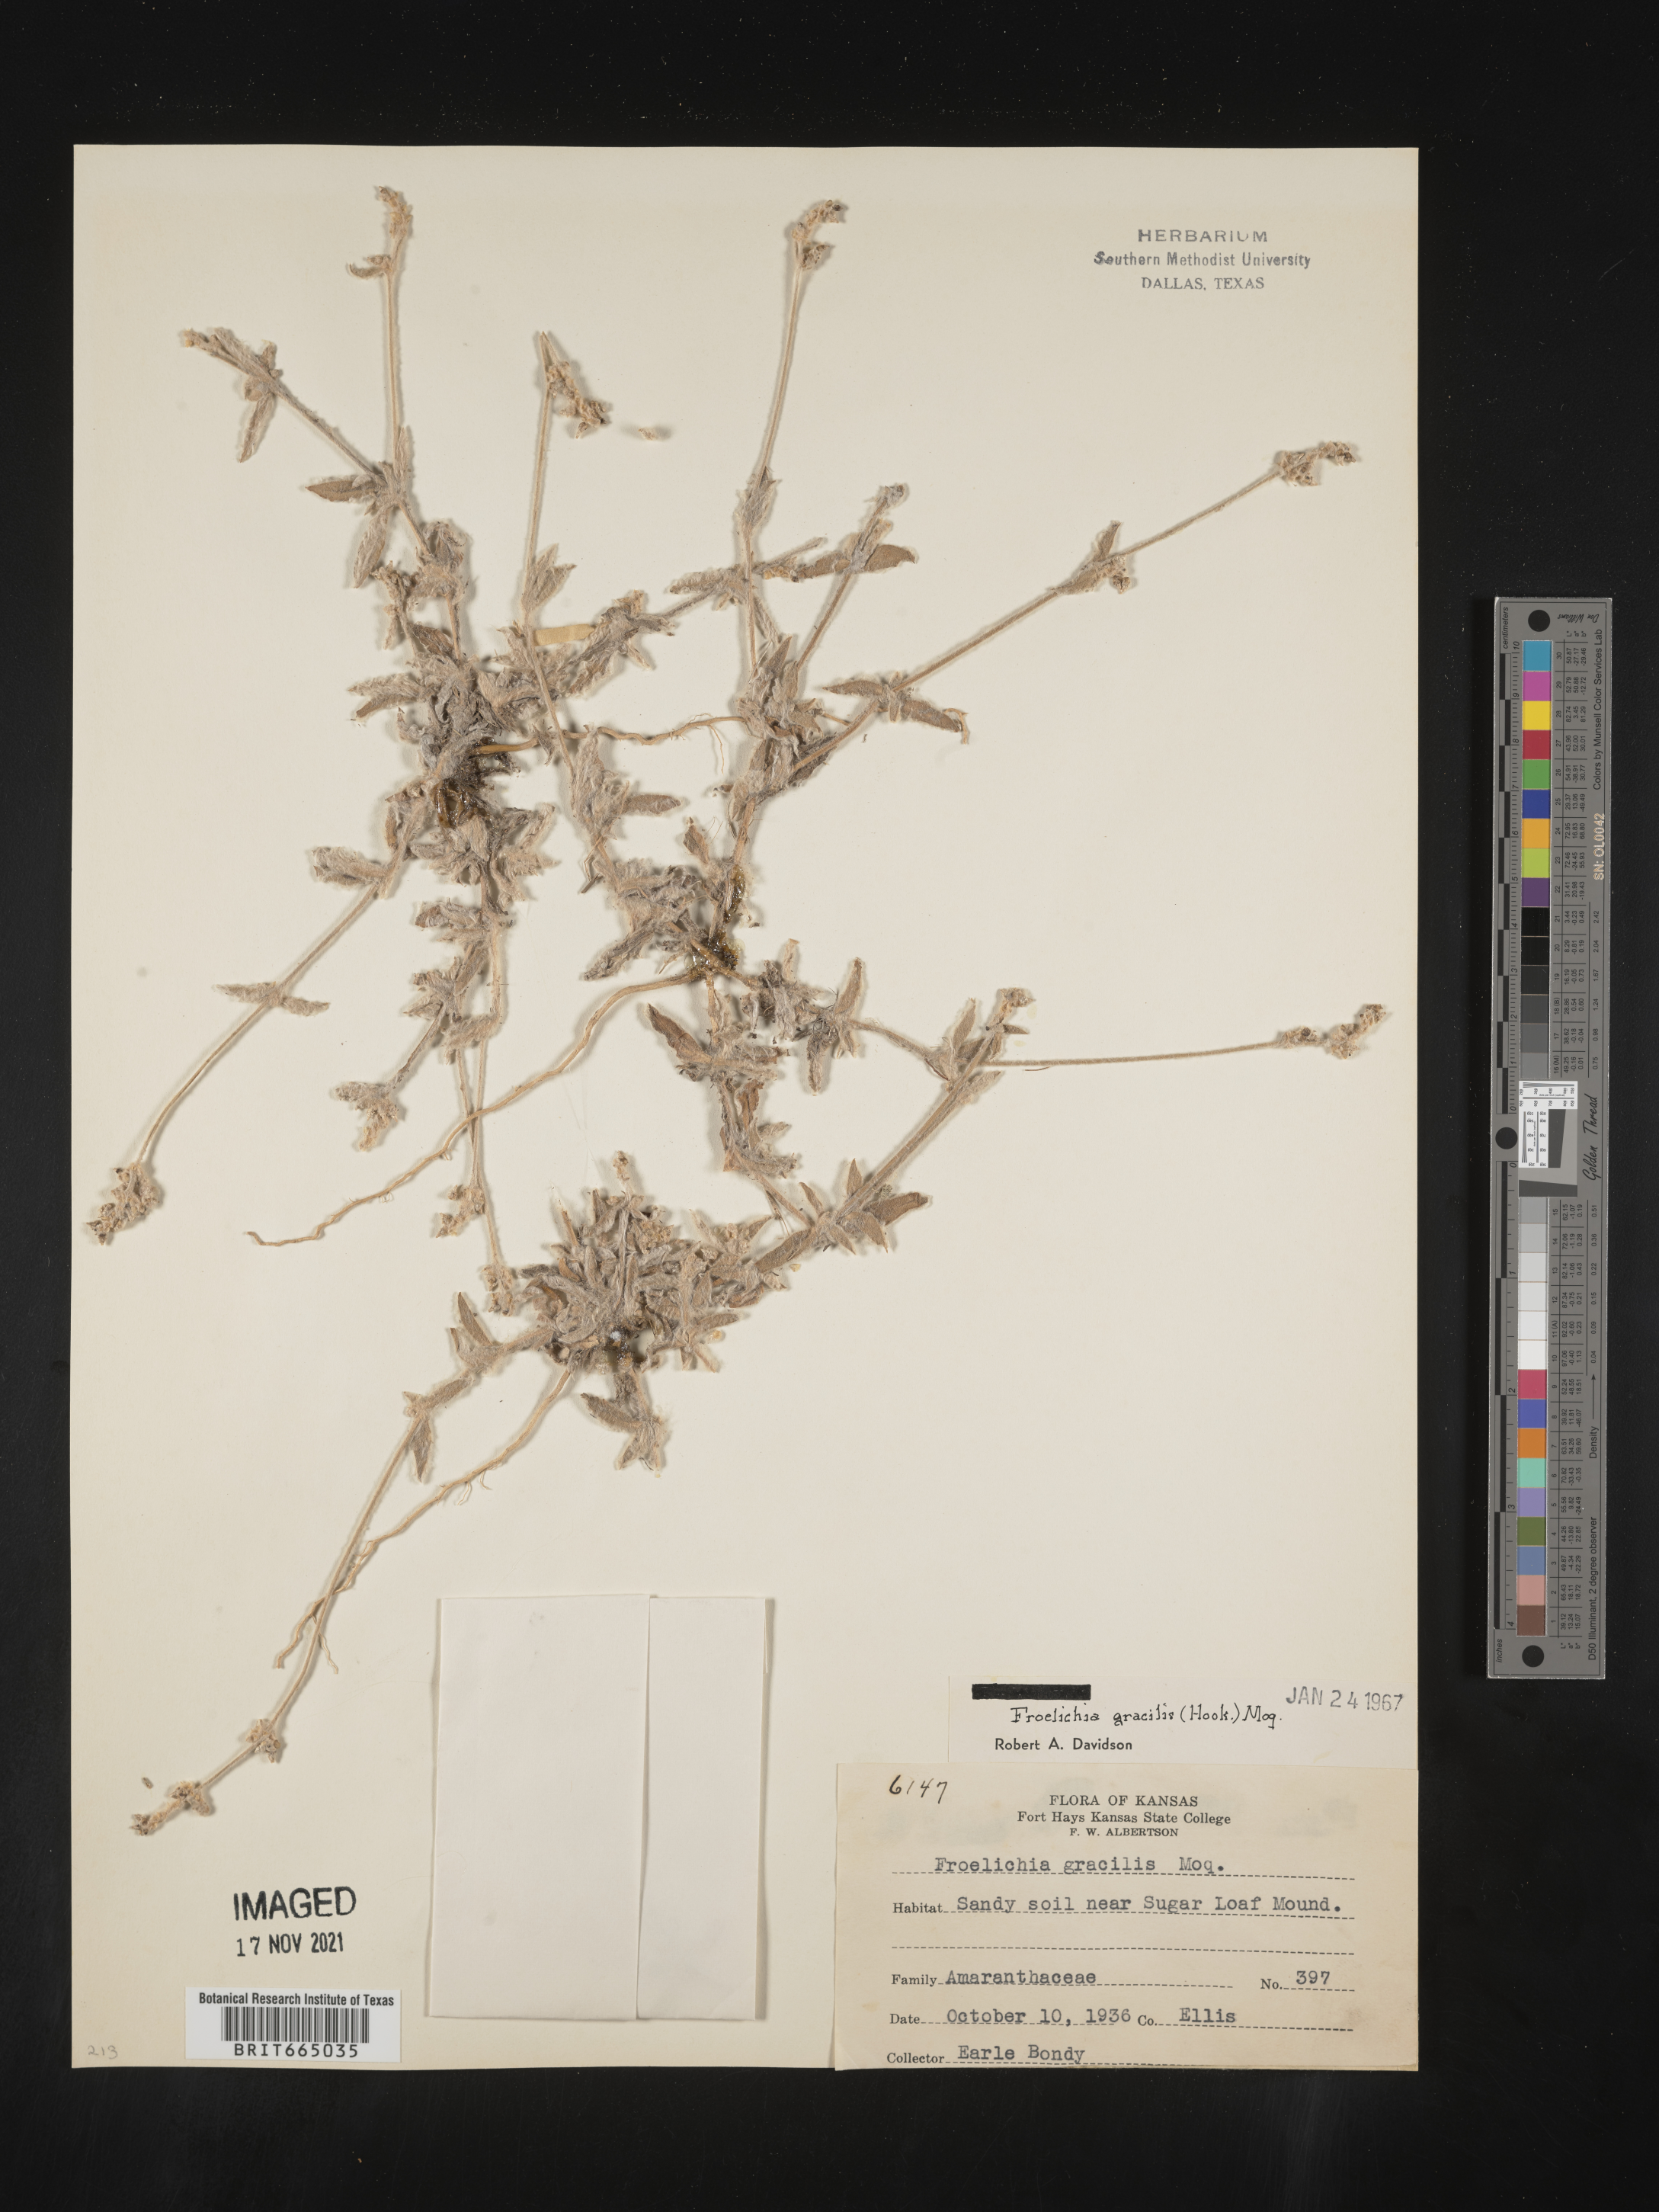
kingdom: Plantae
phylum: Tracheophyta
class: Magnoliopsida
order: Caryophyllales
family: Amaranthaceae
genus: Froelichia
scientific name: Froelichia gracilis
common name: Slender cottonweed
